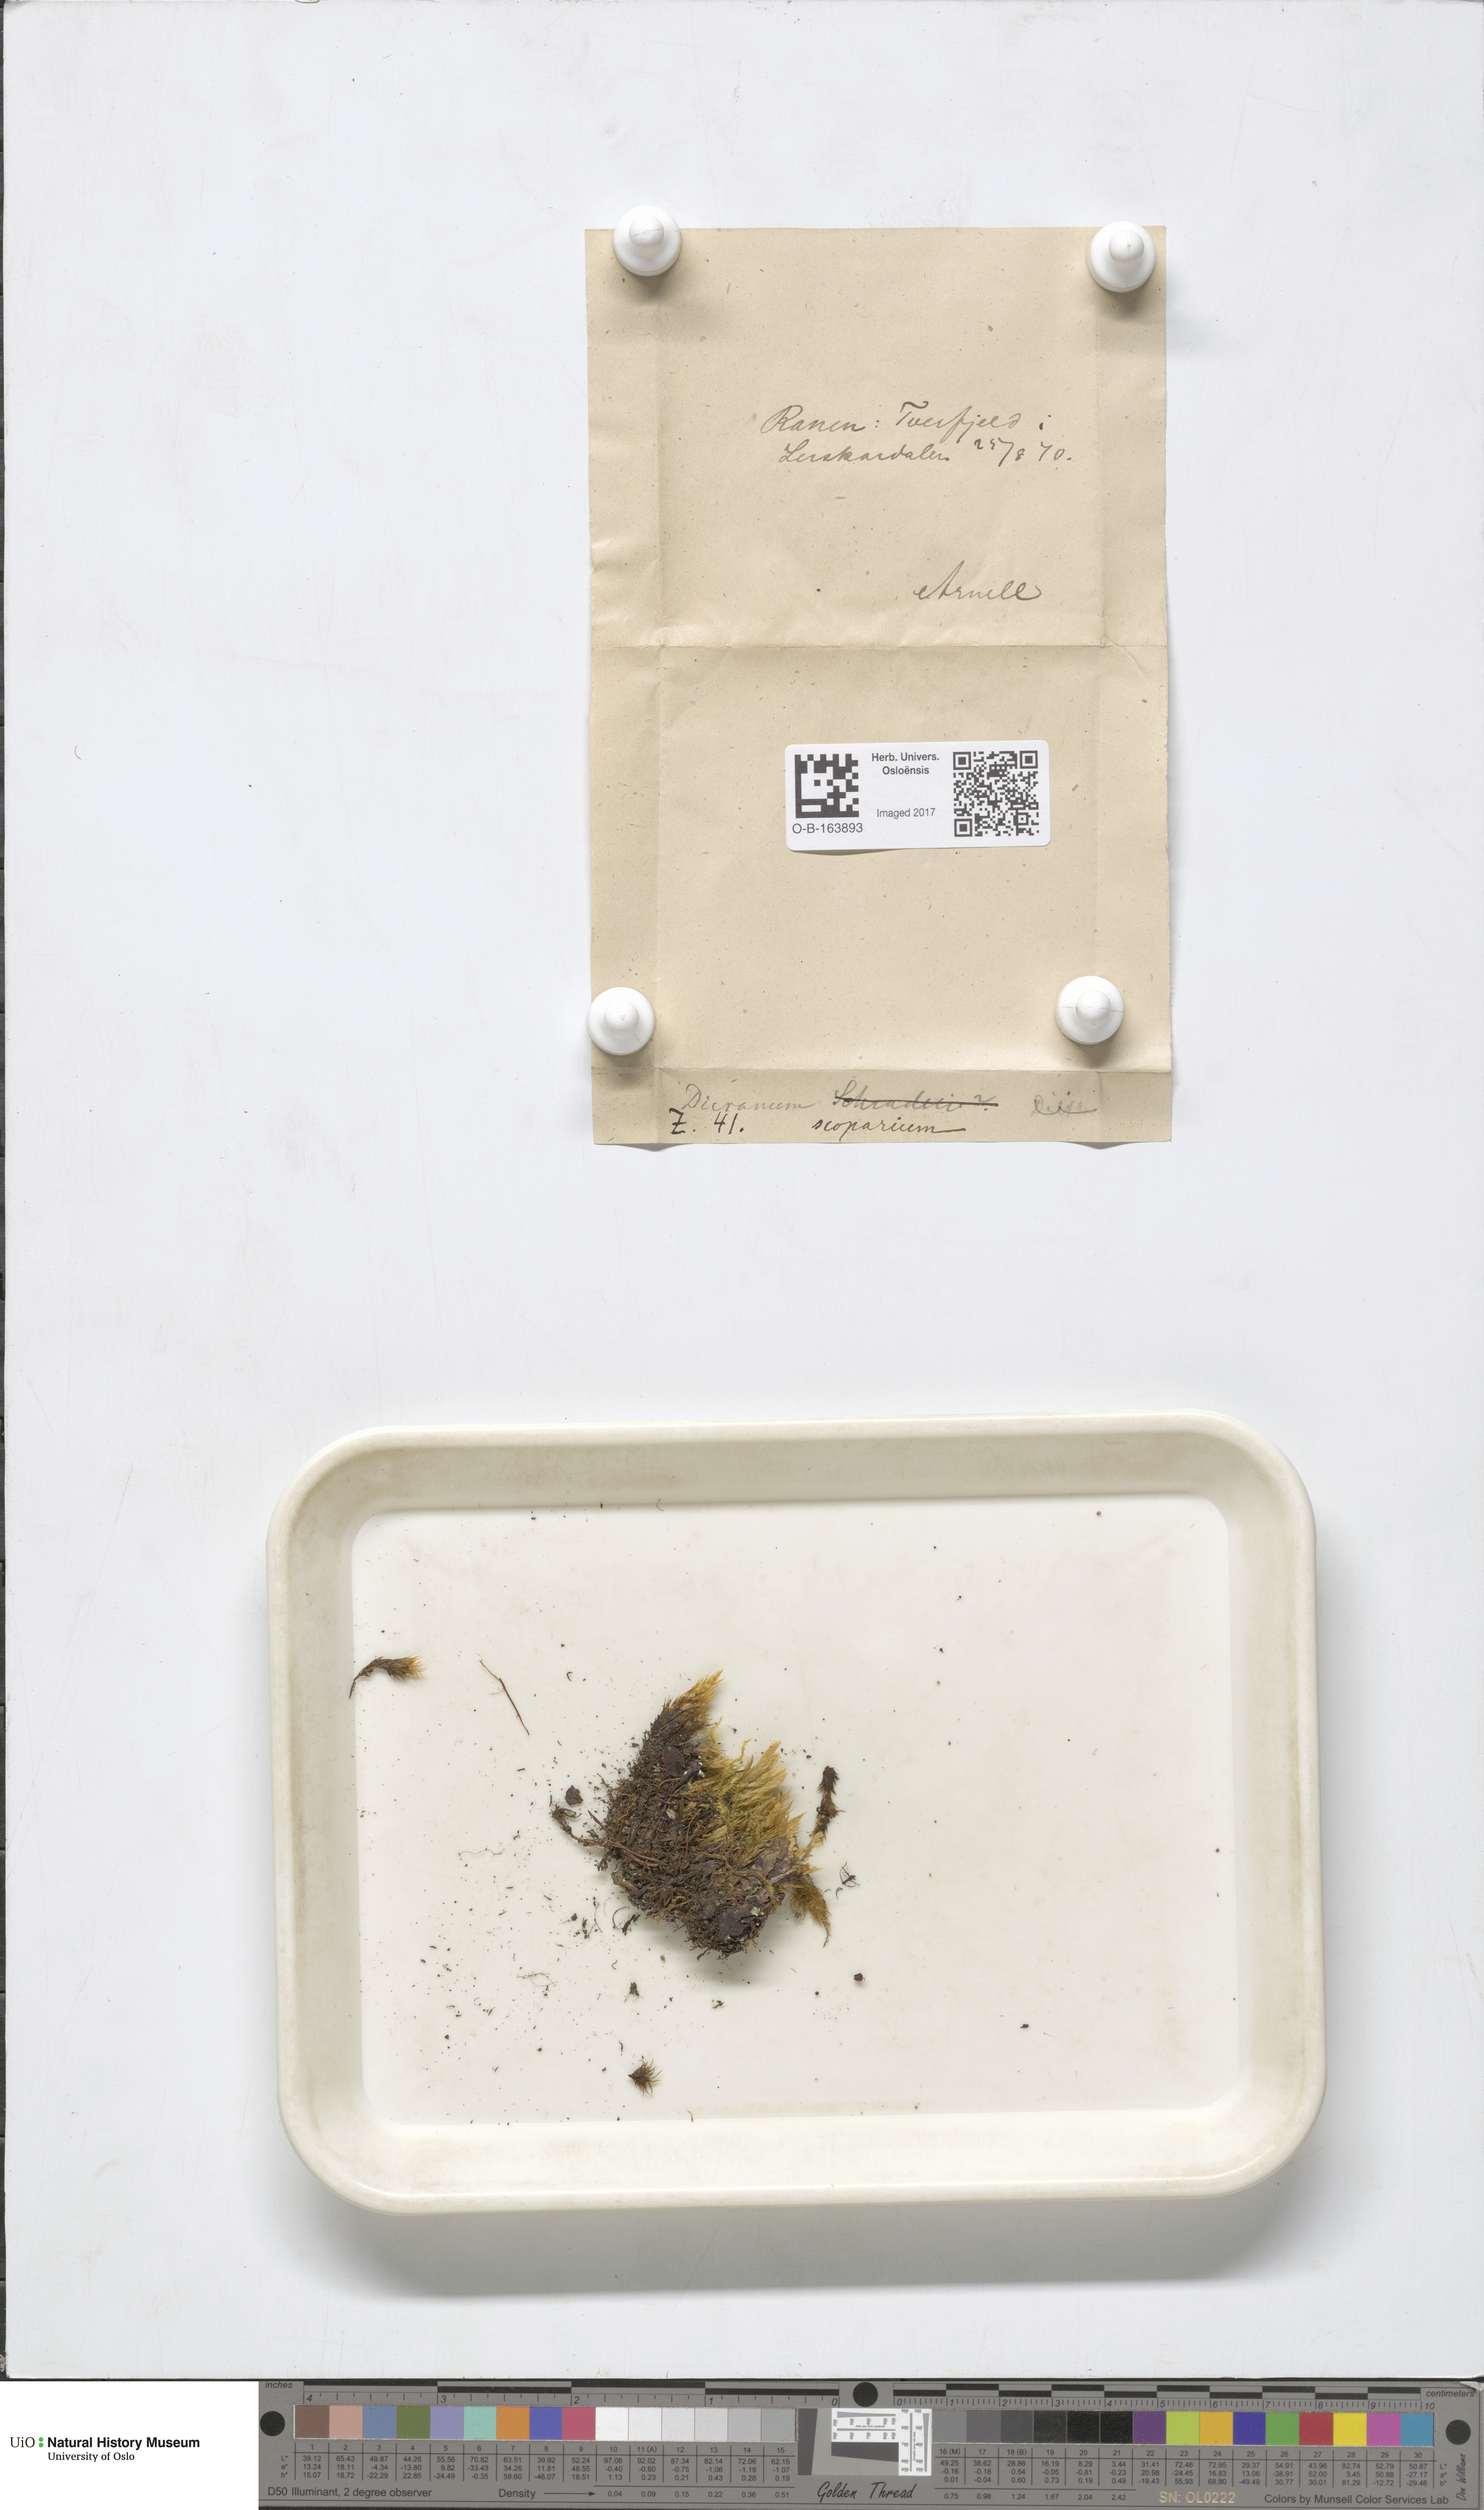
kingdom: Plantae
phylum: Bryophyta
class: Bryopsida
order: Dicranales
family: Dicranaceae
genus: Dicranum
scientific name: Dicranum scoparium
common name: Broom fork-moss
